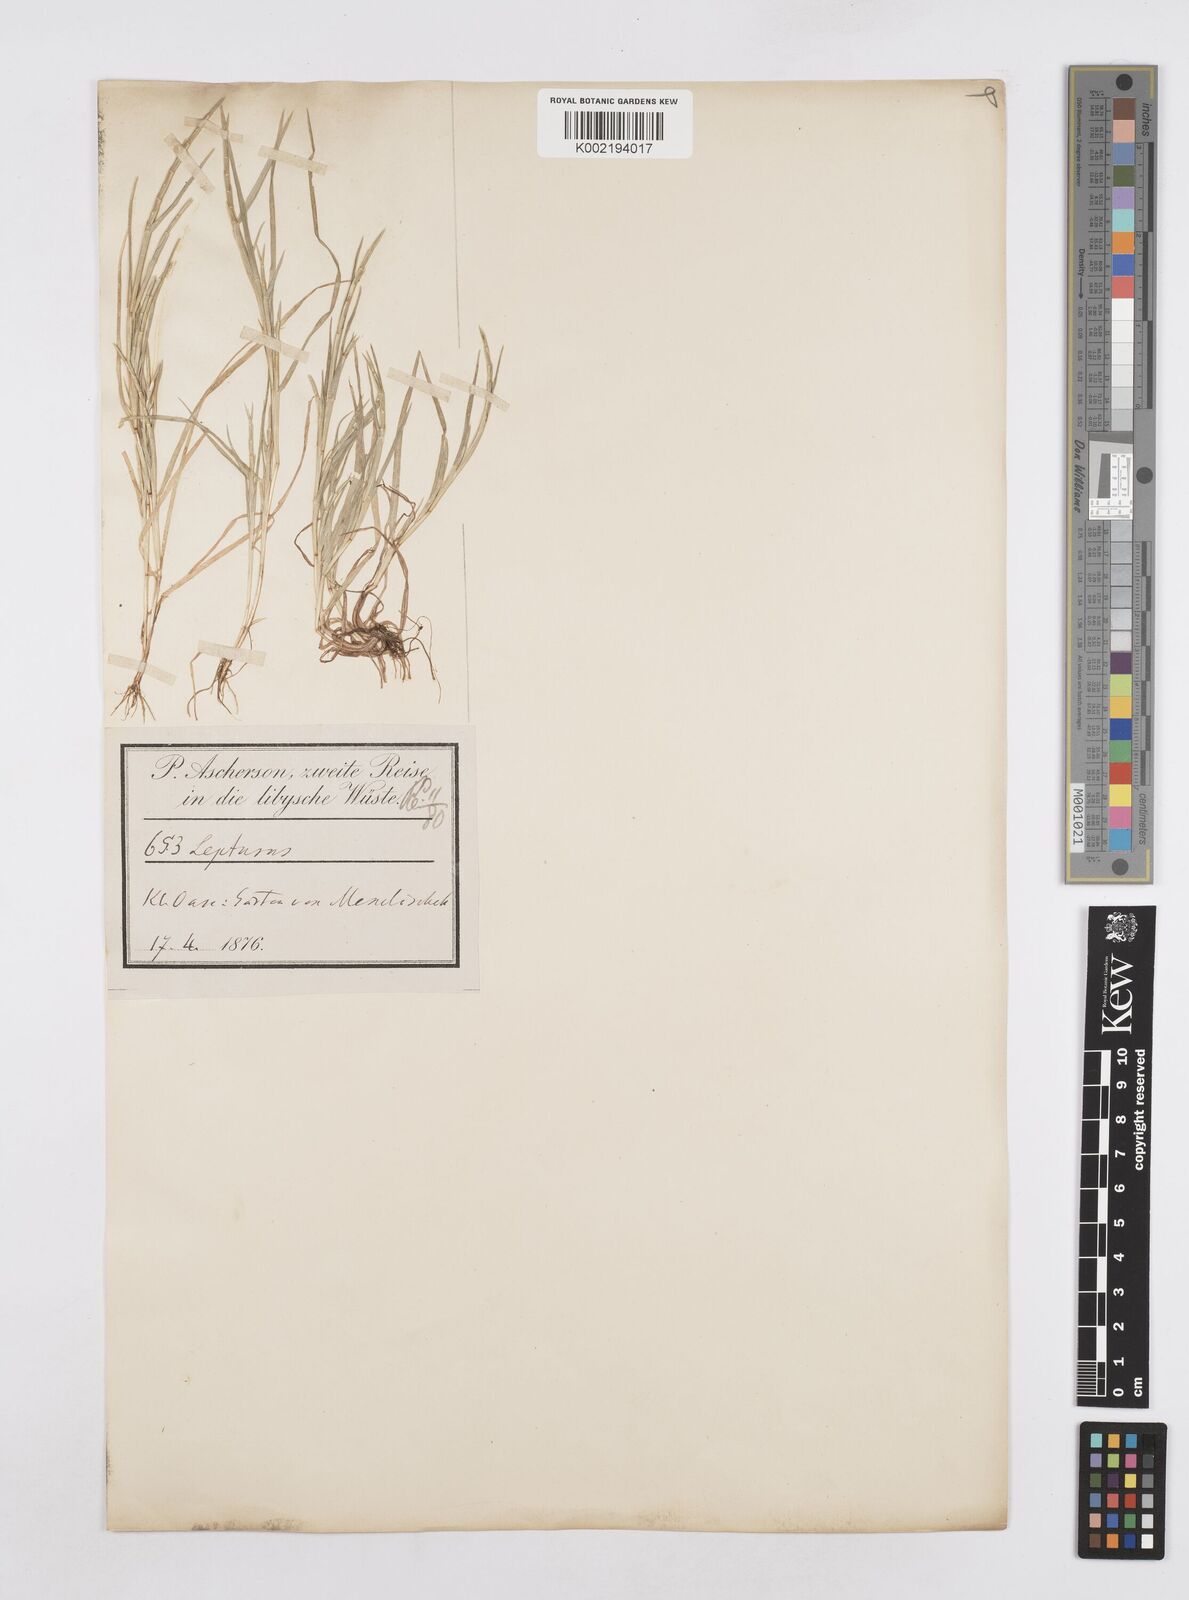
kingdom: Plantae
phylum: Tracheophyta
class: Liliopsida
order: Poales
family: Poaceae
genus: Parapholis
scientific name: Parapholis incurva
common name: Curved sicklegrass
